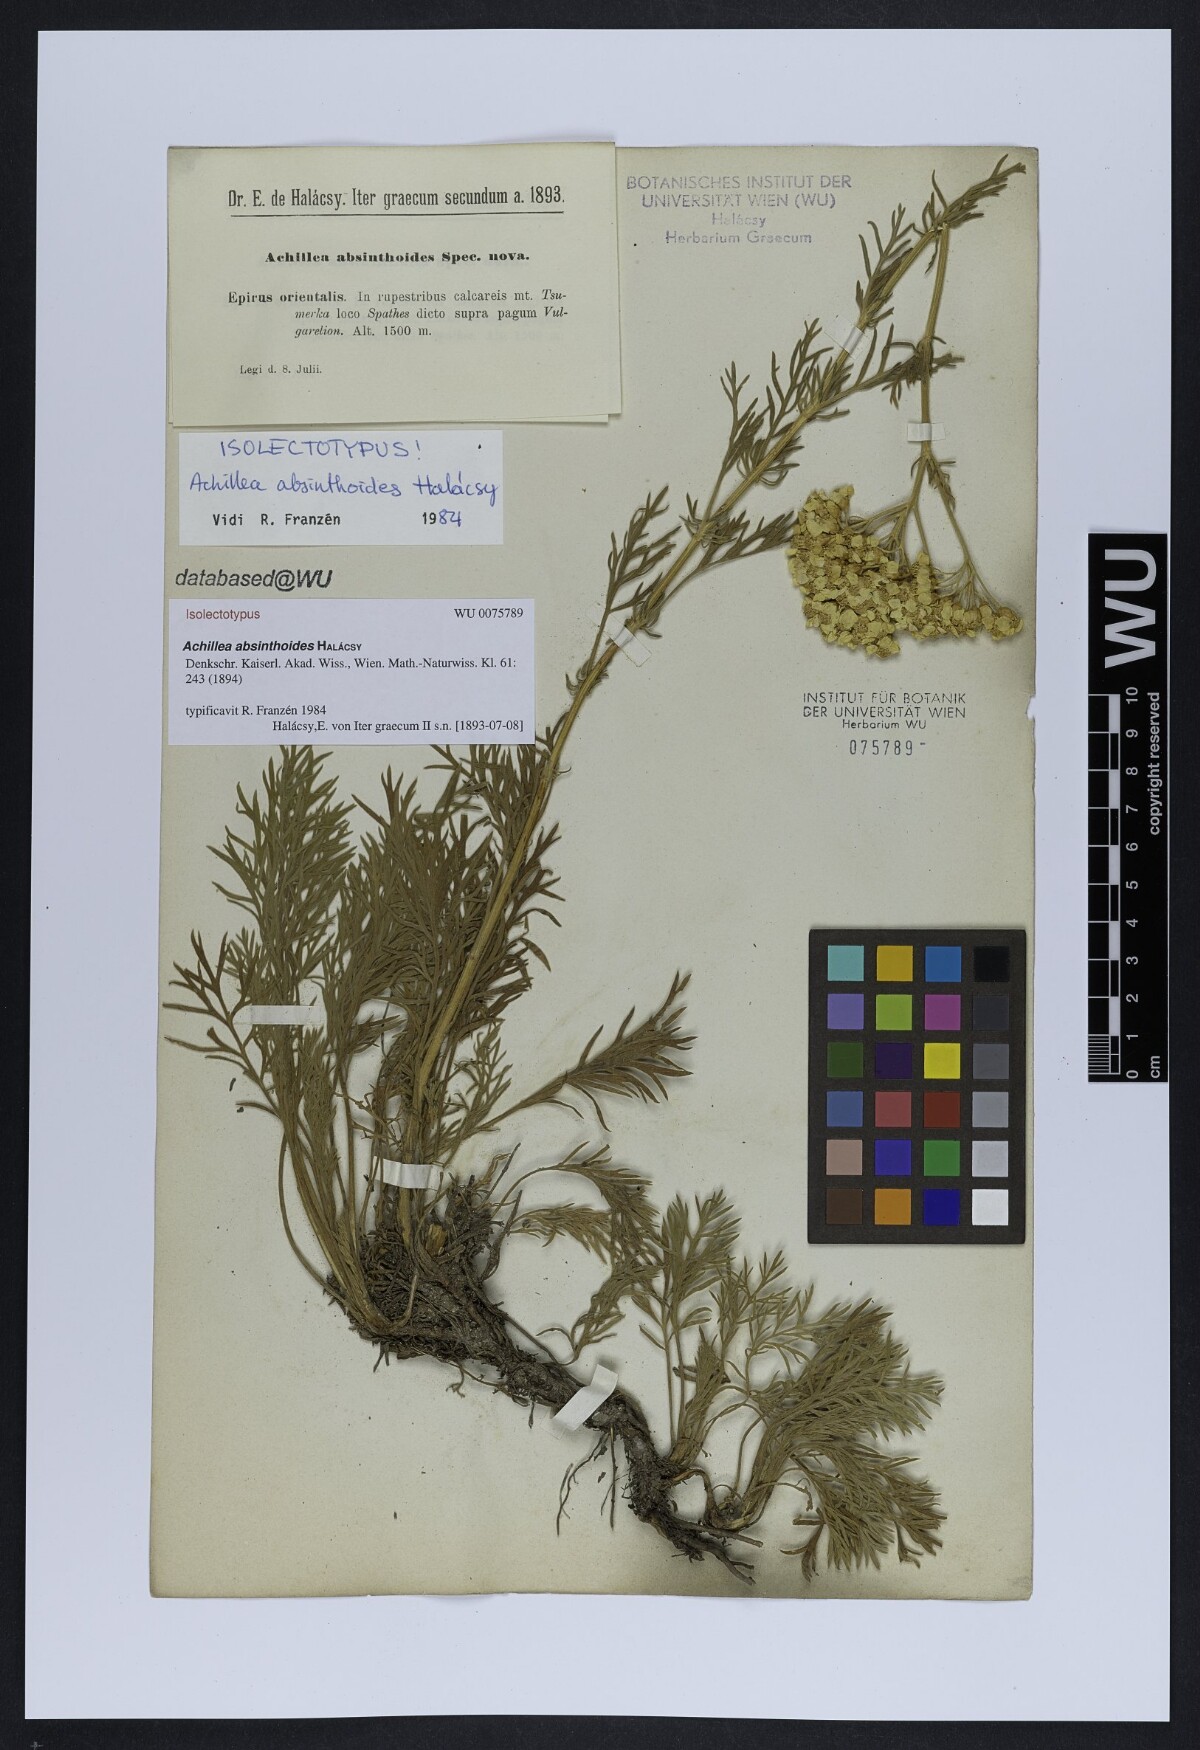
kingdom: Plantae
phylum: Tracheophyta
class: Magnoliopsida
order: Asterales
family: Asteraceae
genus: Achillea
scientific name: Achillea absinthoides
